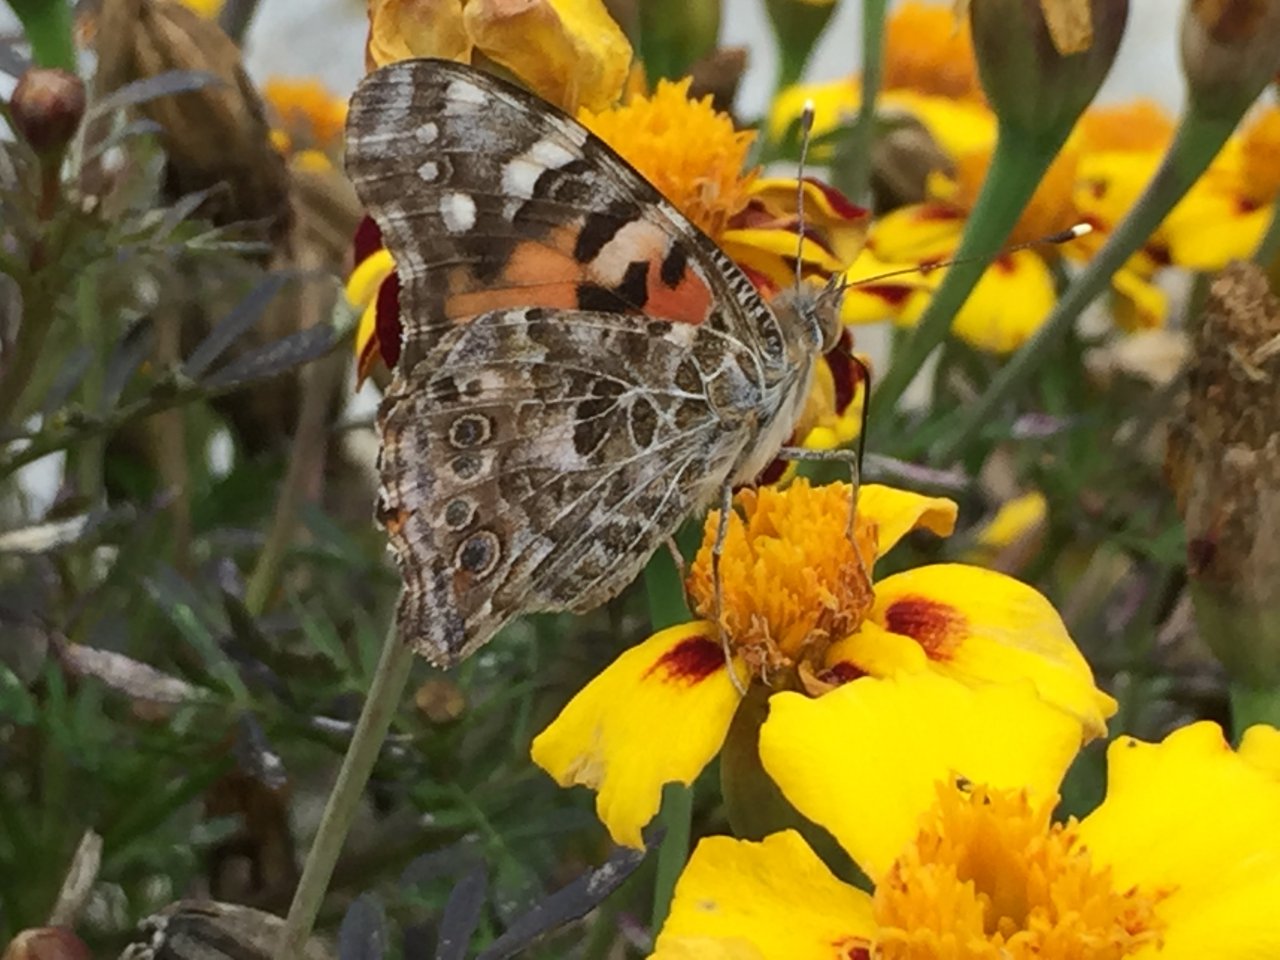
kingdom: Animalia
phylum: Arthropoda
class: Insecta
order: Lepidoptera
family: Nymphalidae
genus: Vanessa
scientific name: Vanessa cardui
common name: Painted Lady
